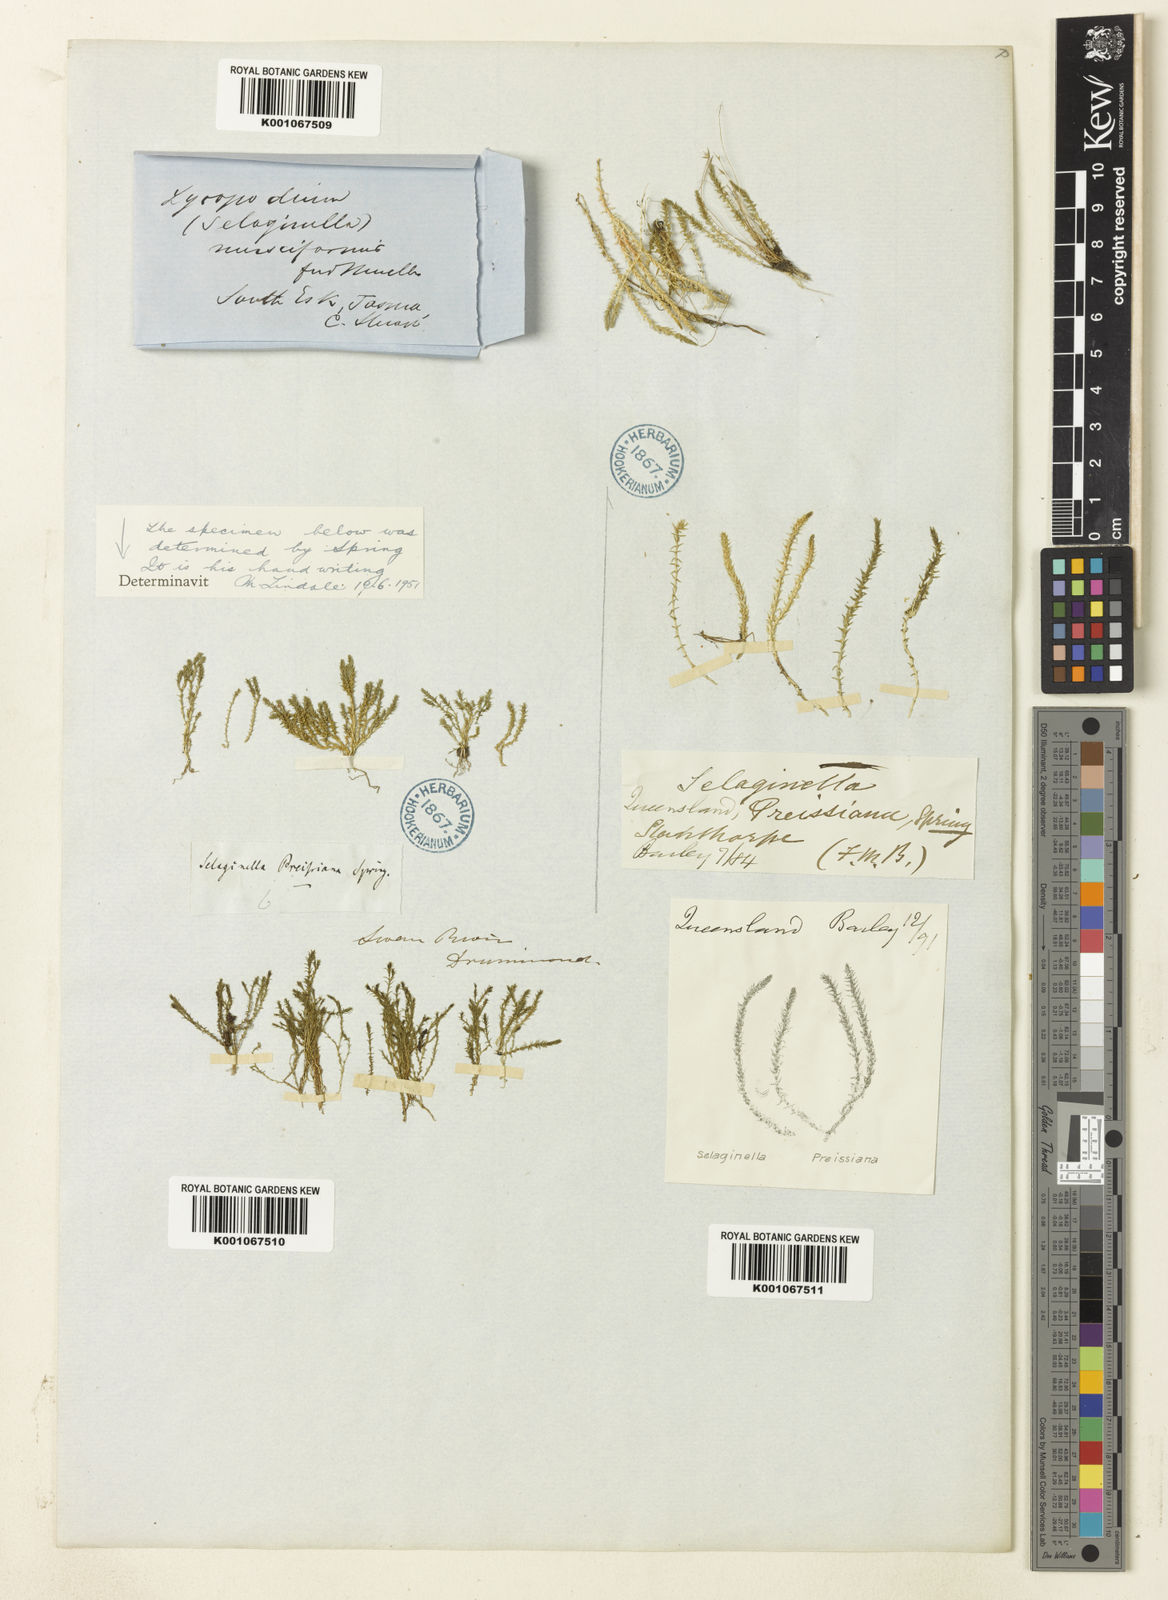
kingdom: Plantae
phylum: Tracheophyta
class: Lycopodiopsida
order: Selaginellales
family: Selaginellaceae
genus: Selaginella
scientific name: Selaginella
